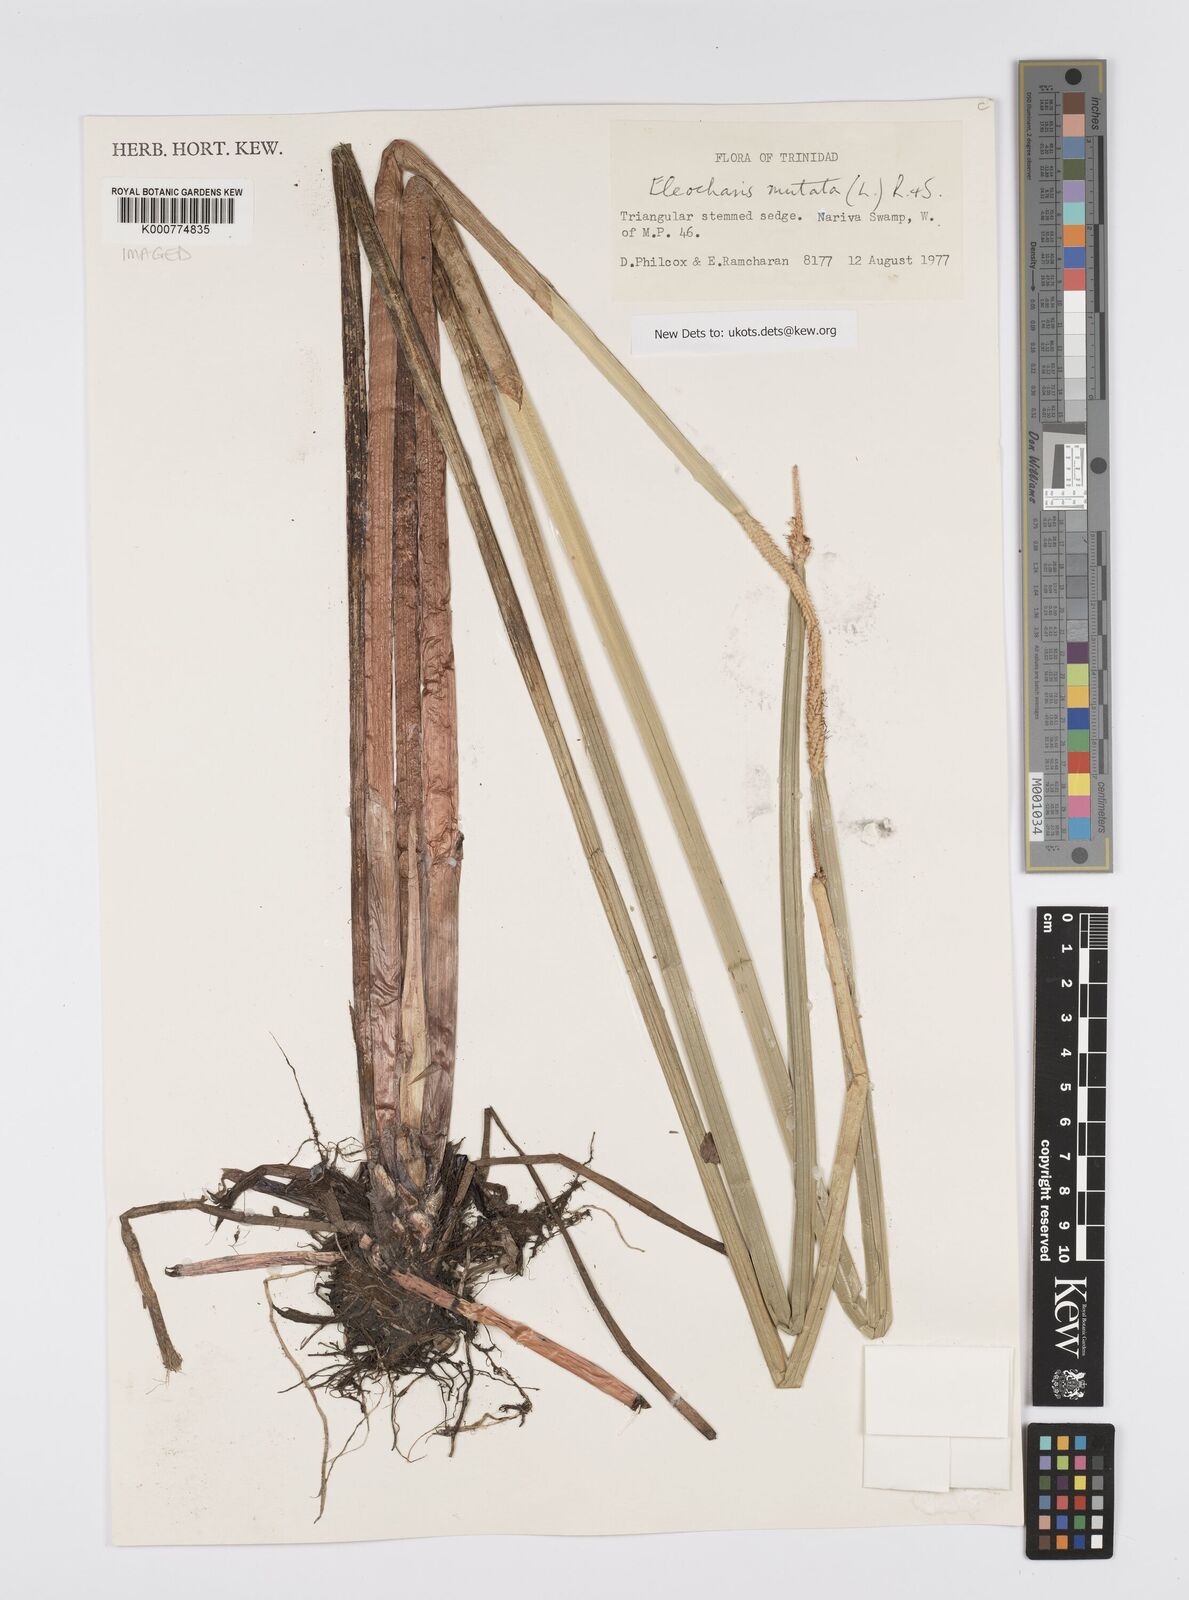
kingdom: Plantae
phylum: Tracheophyta
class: Liliopsida
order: Poales
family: Cyperaceae
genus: Eleocharis
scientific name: Eleocharis mutata
